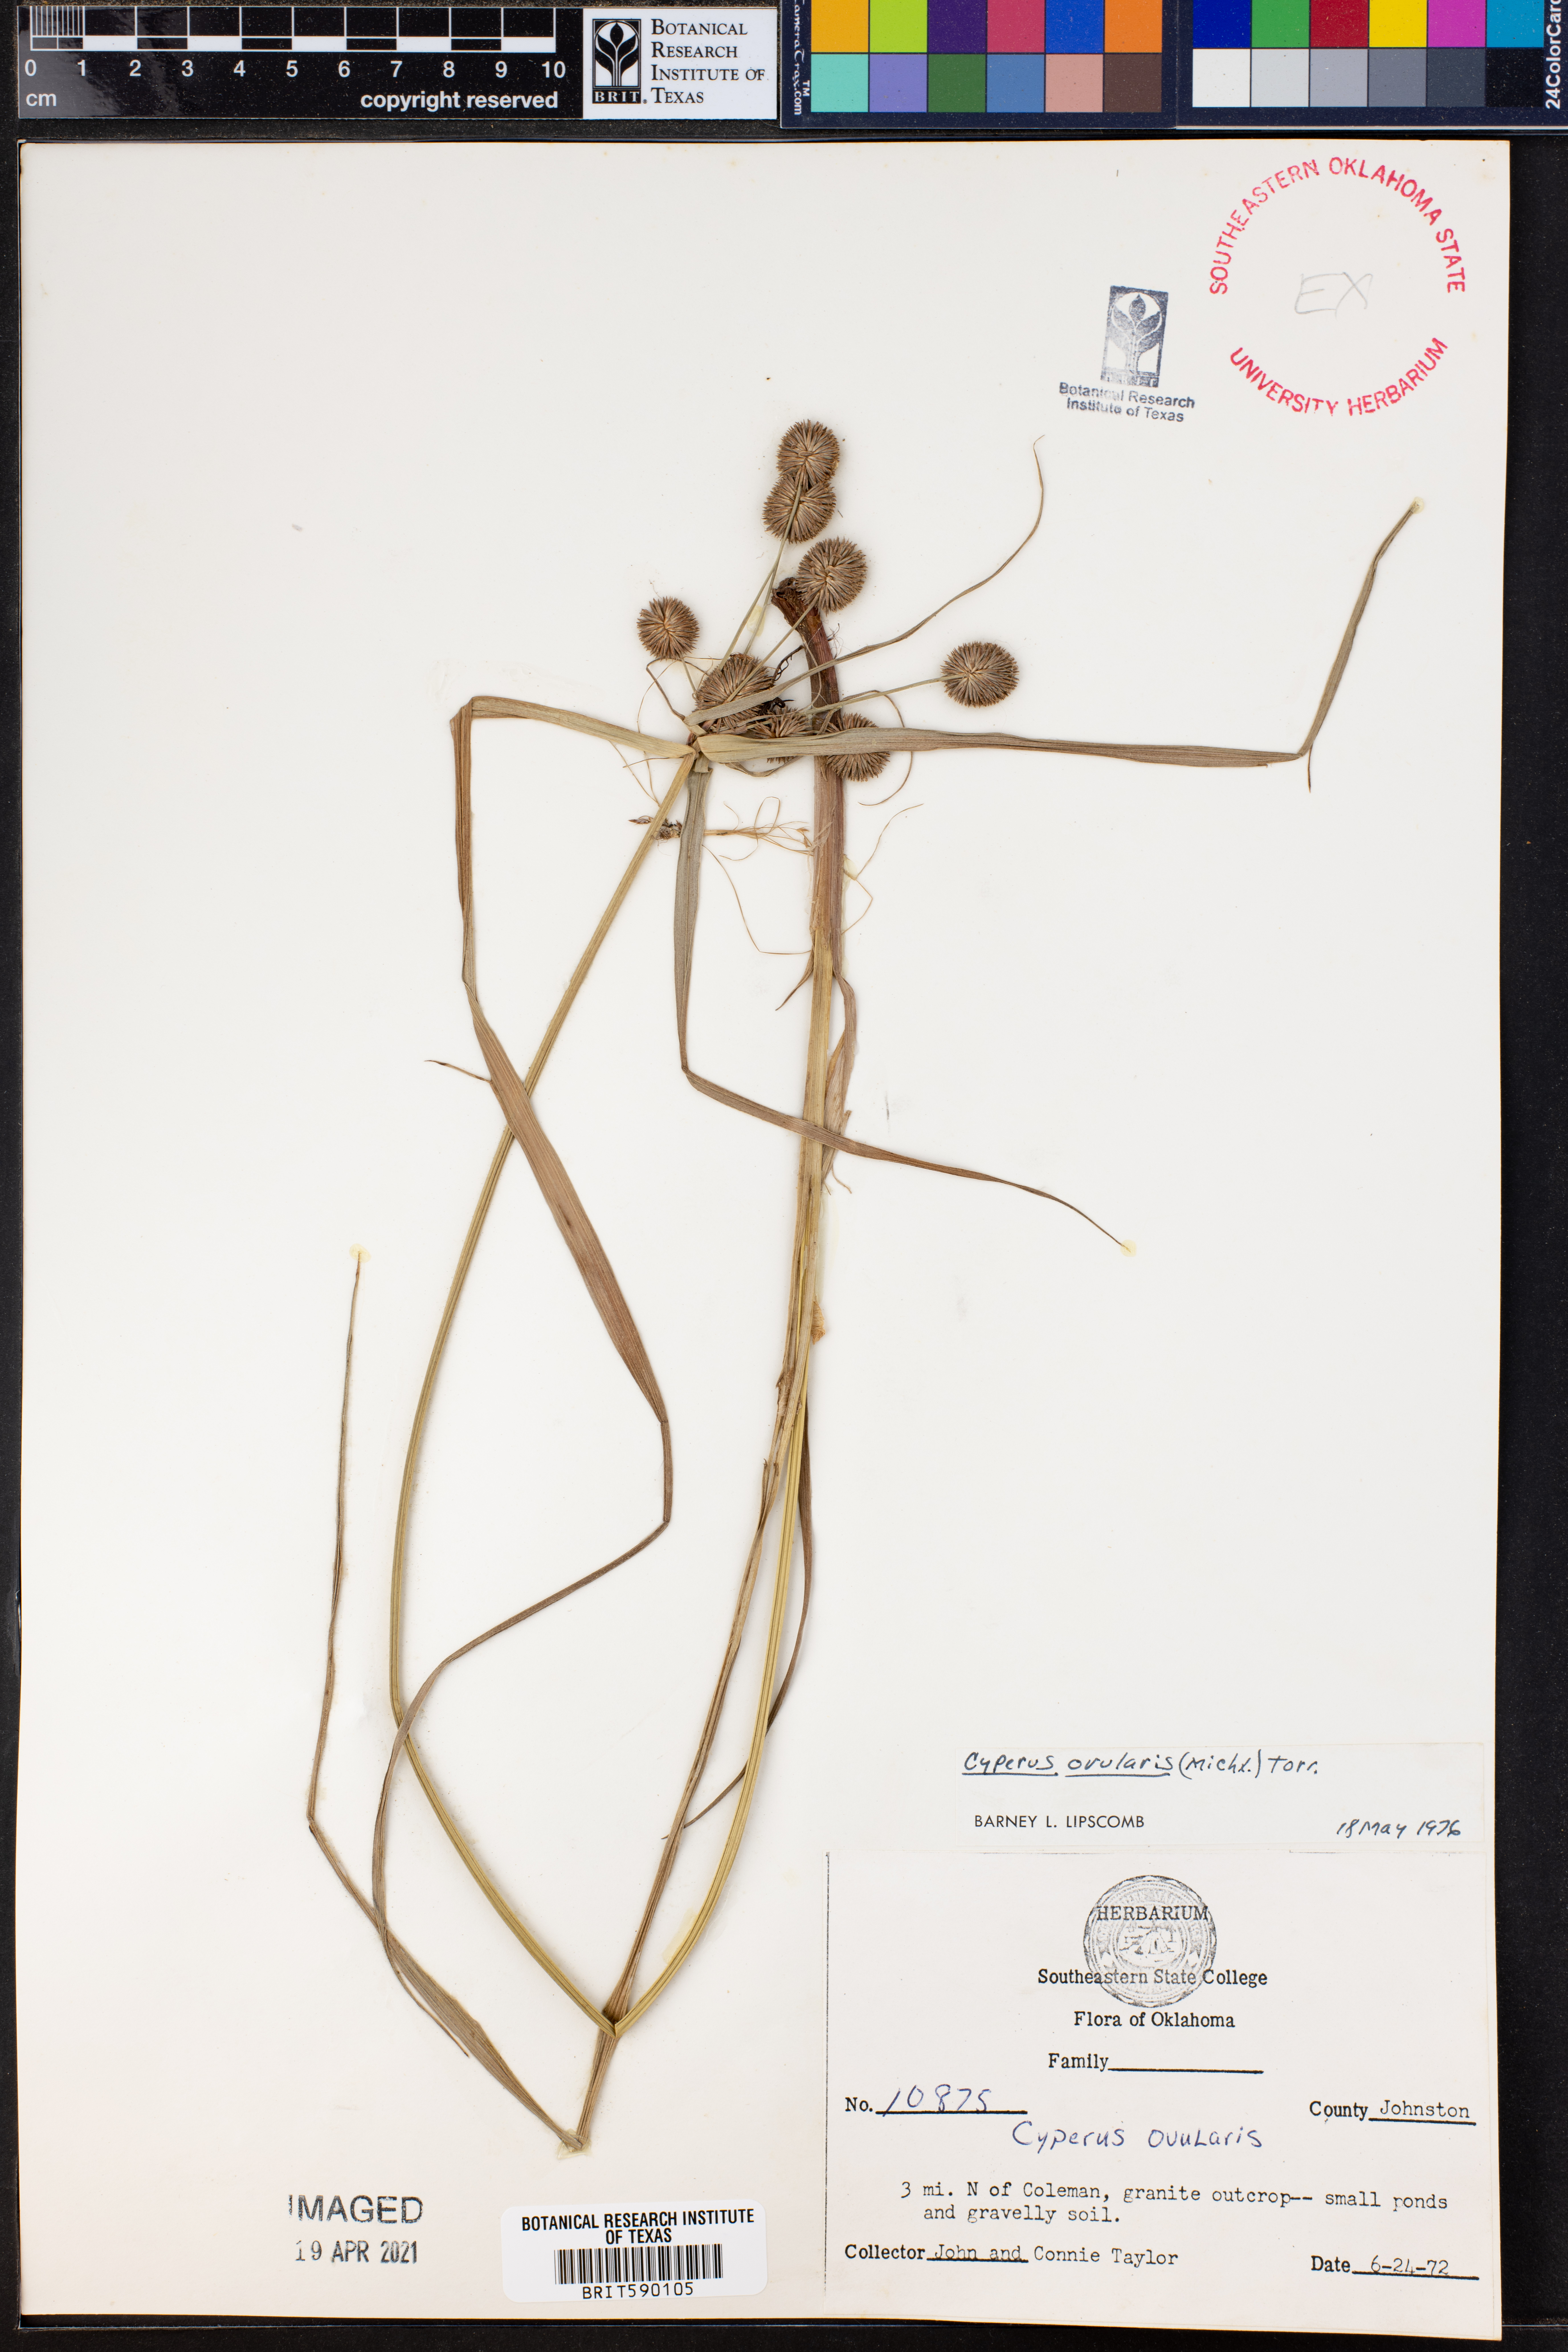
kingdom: Plantae
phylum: Tracheophyta
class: Liliopsida
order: Poales
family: Cyperaceae
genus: Cyperus
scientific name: Cyperus echinatus
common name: Teasel sedge
